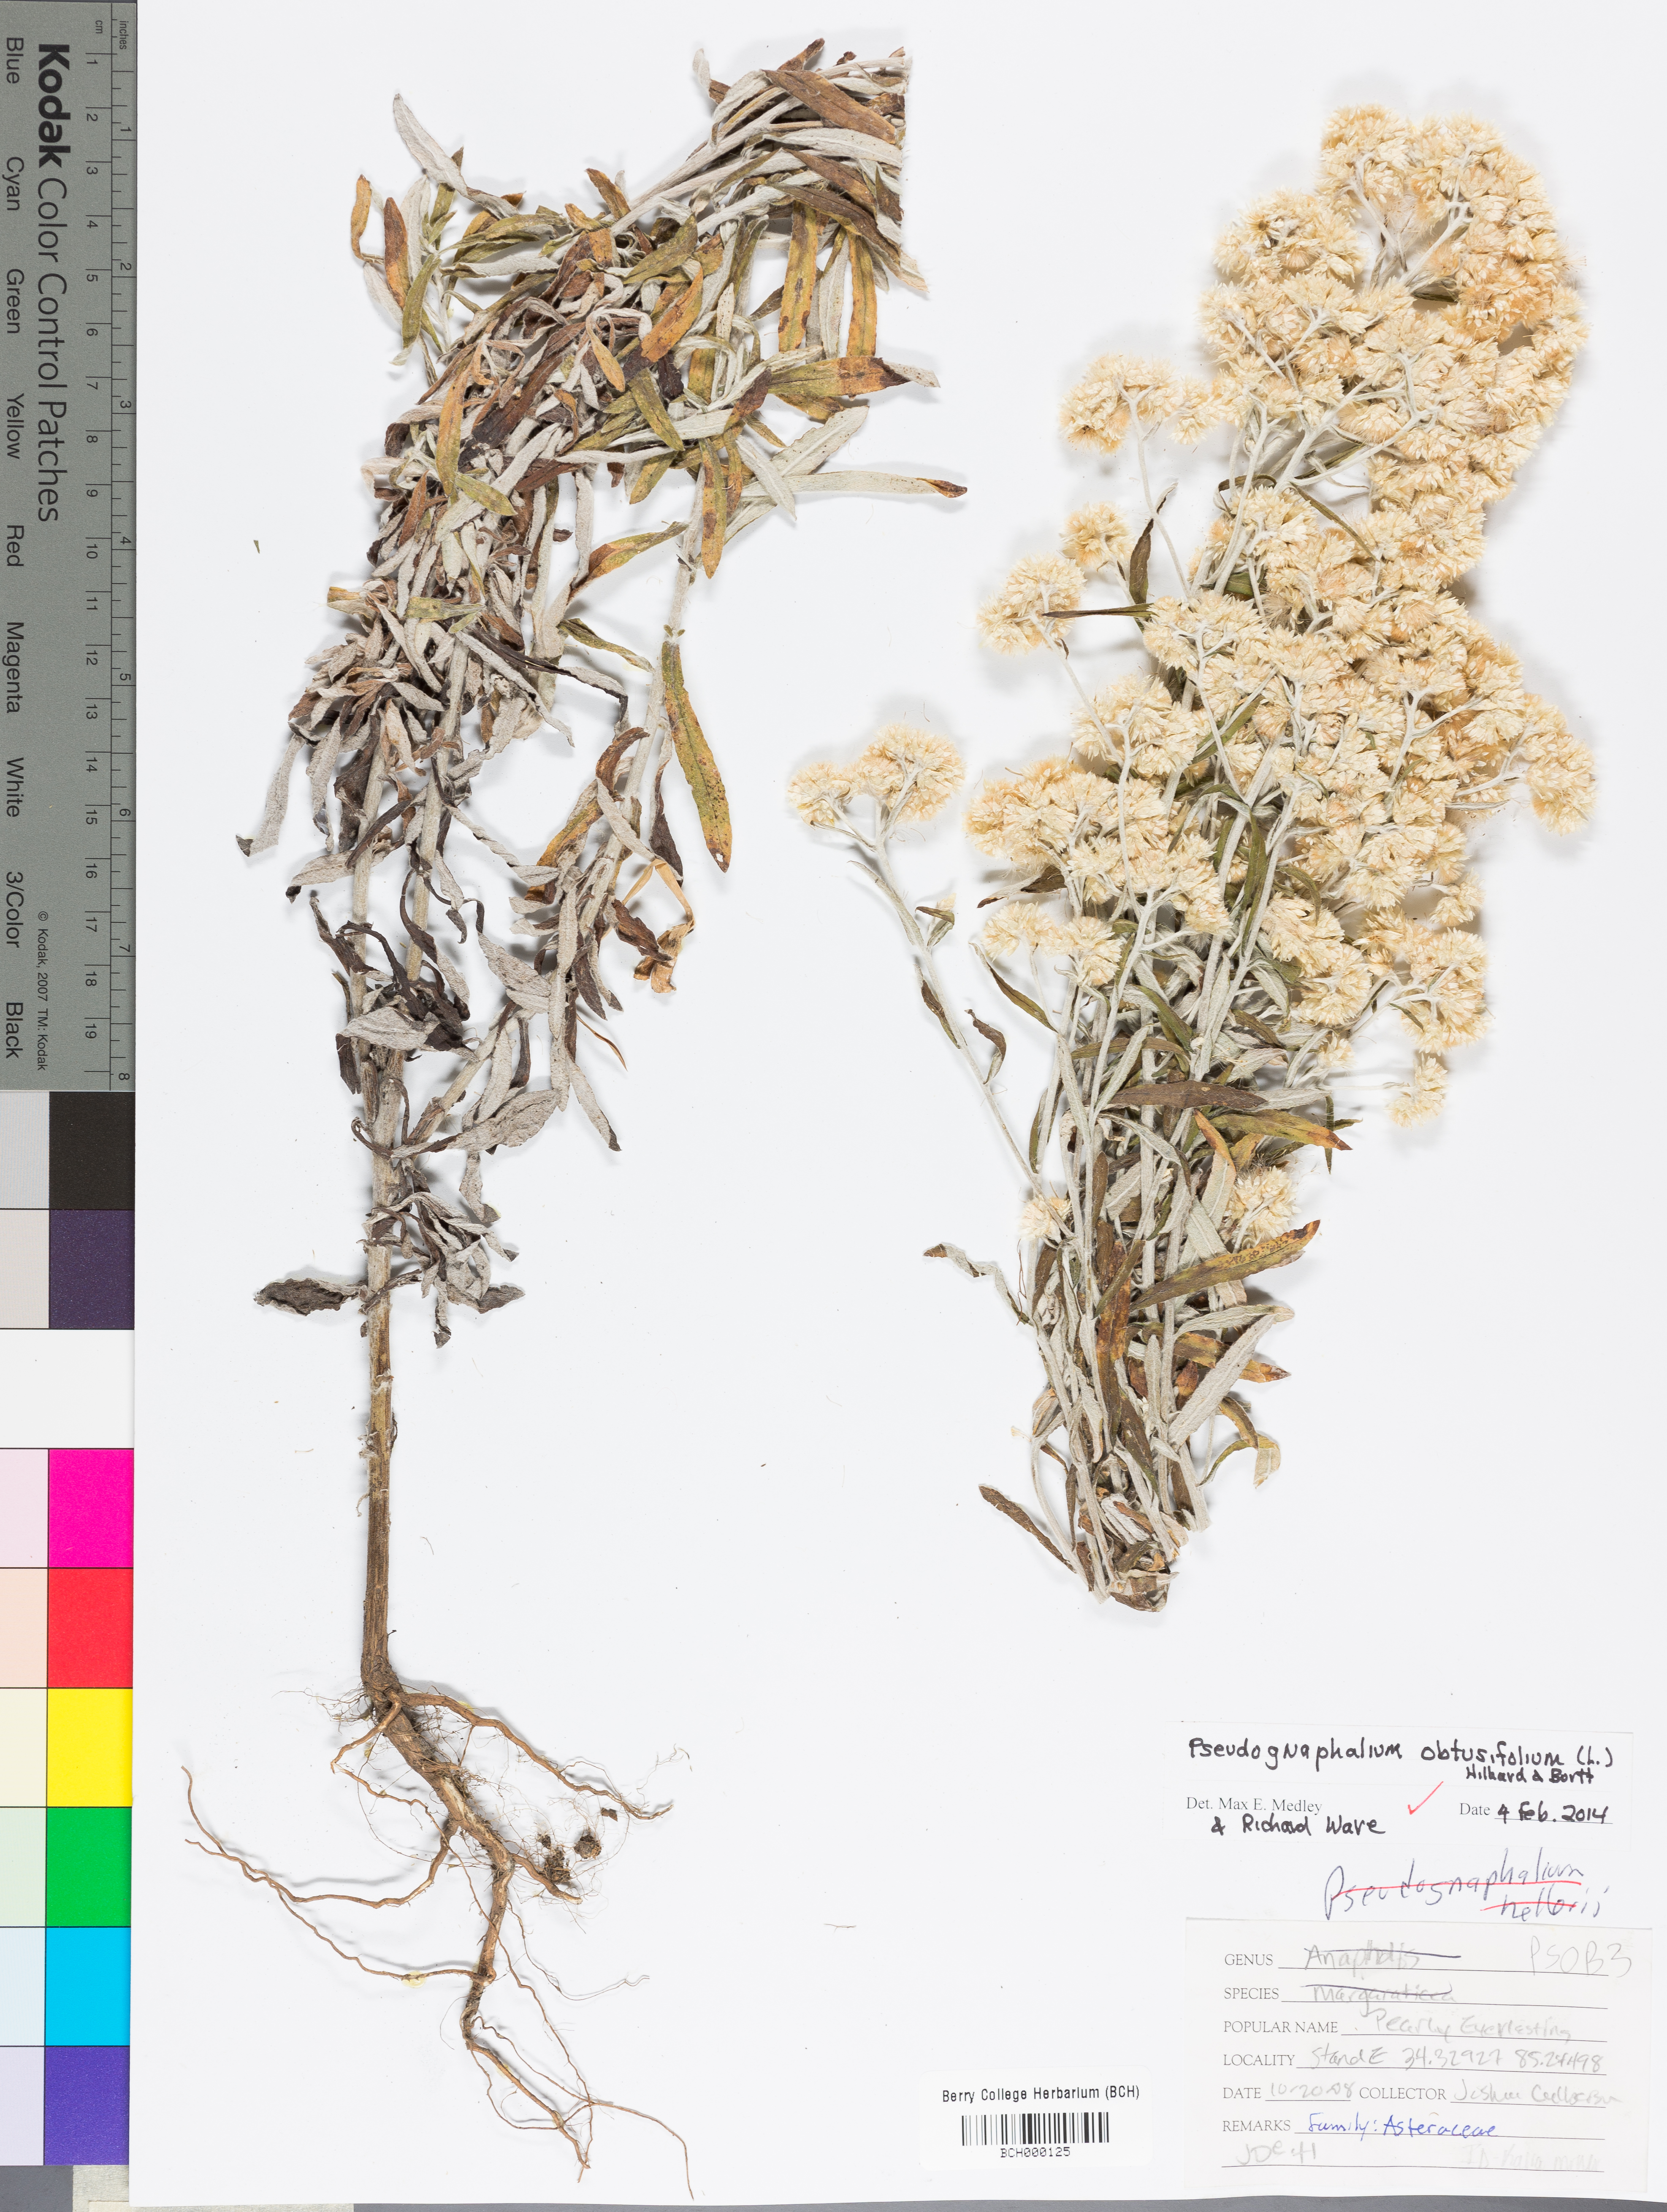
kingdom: Plantae
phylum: Tracheophyta
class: Magnoliopsida
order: Asterales
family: Asteraceae
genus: Pseudognaphalium
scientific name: Pseudognaphalium obtusifolium
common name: Eastern rabbit-tobacco
